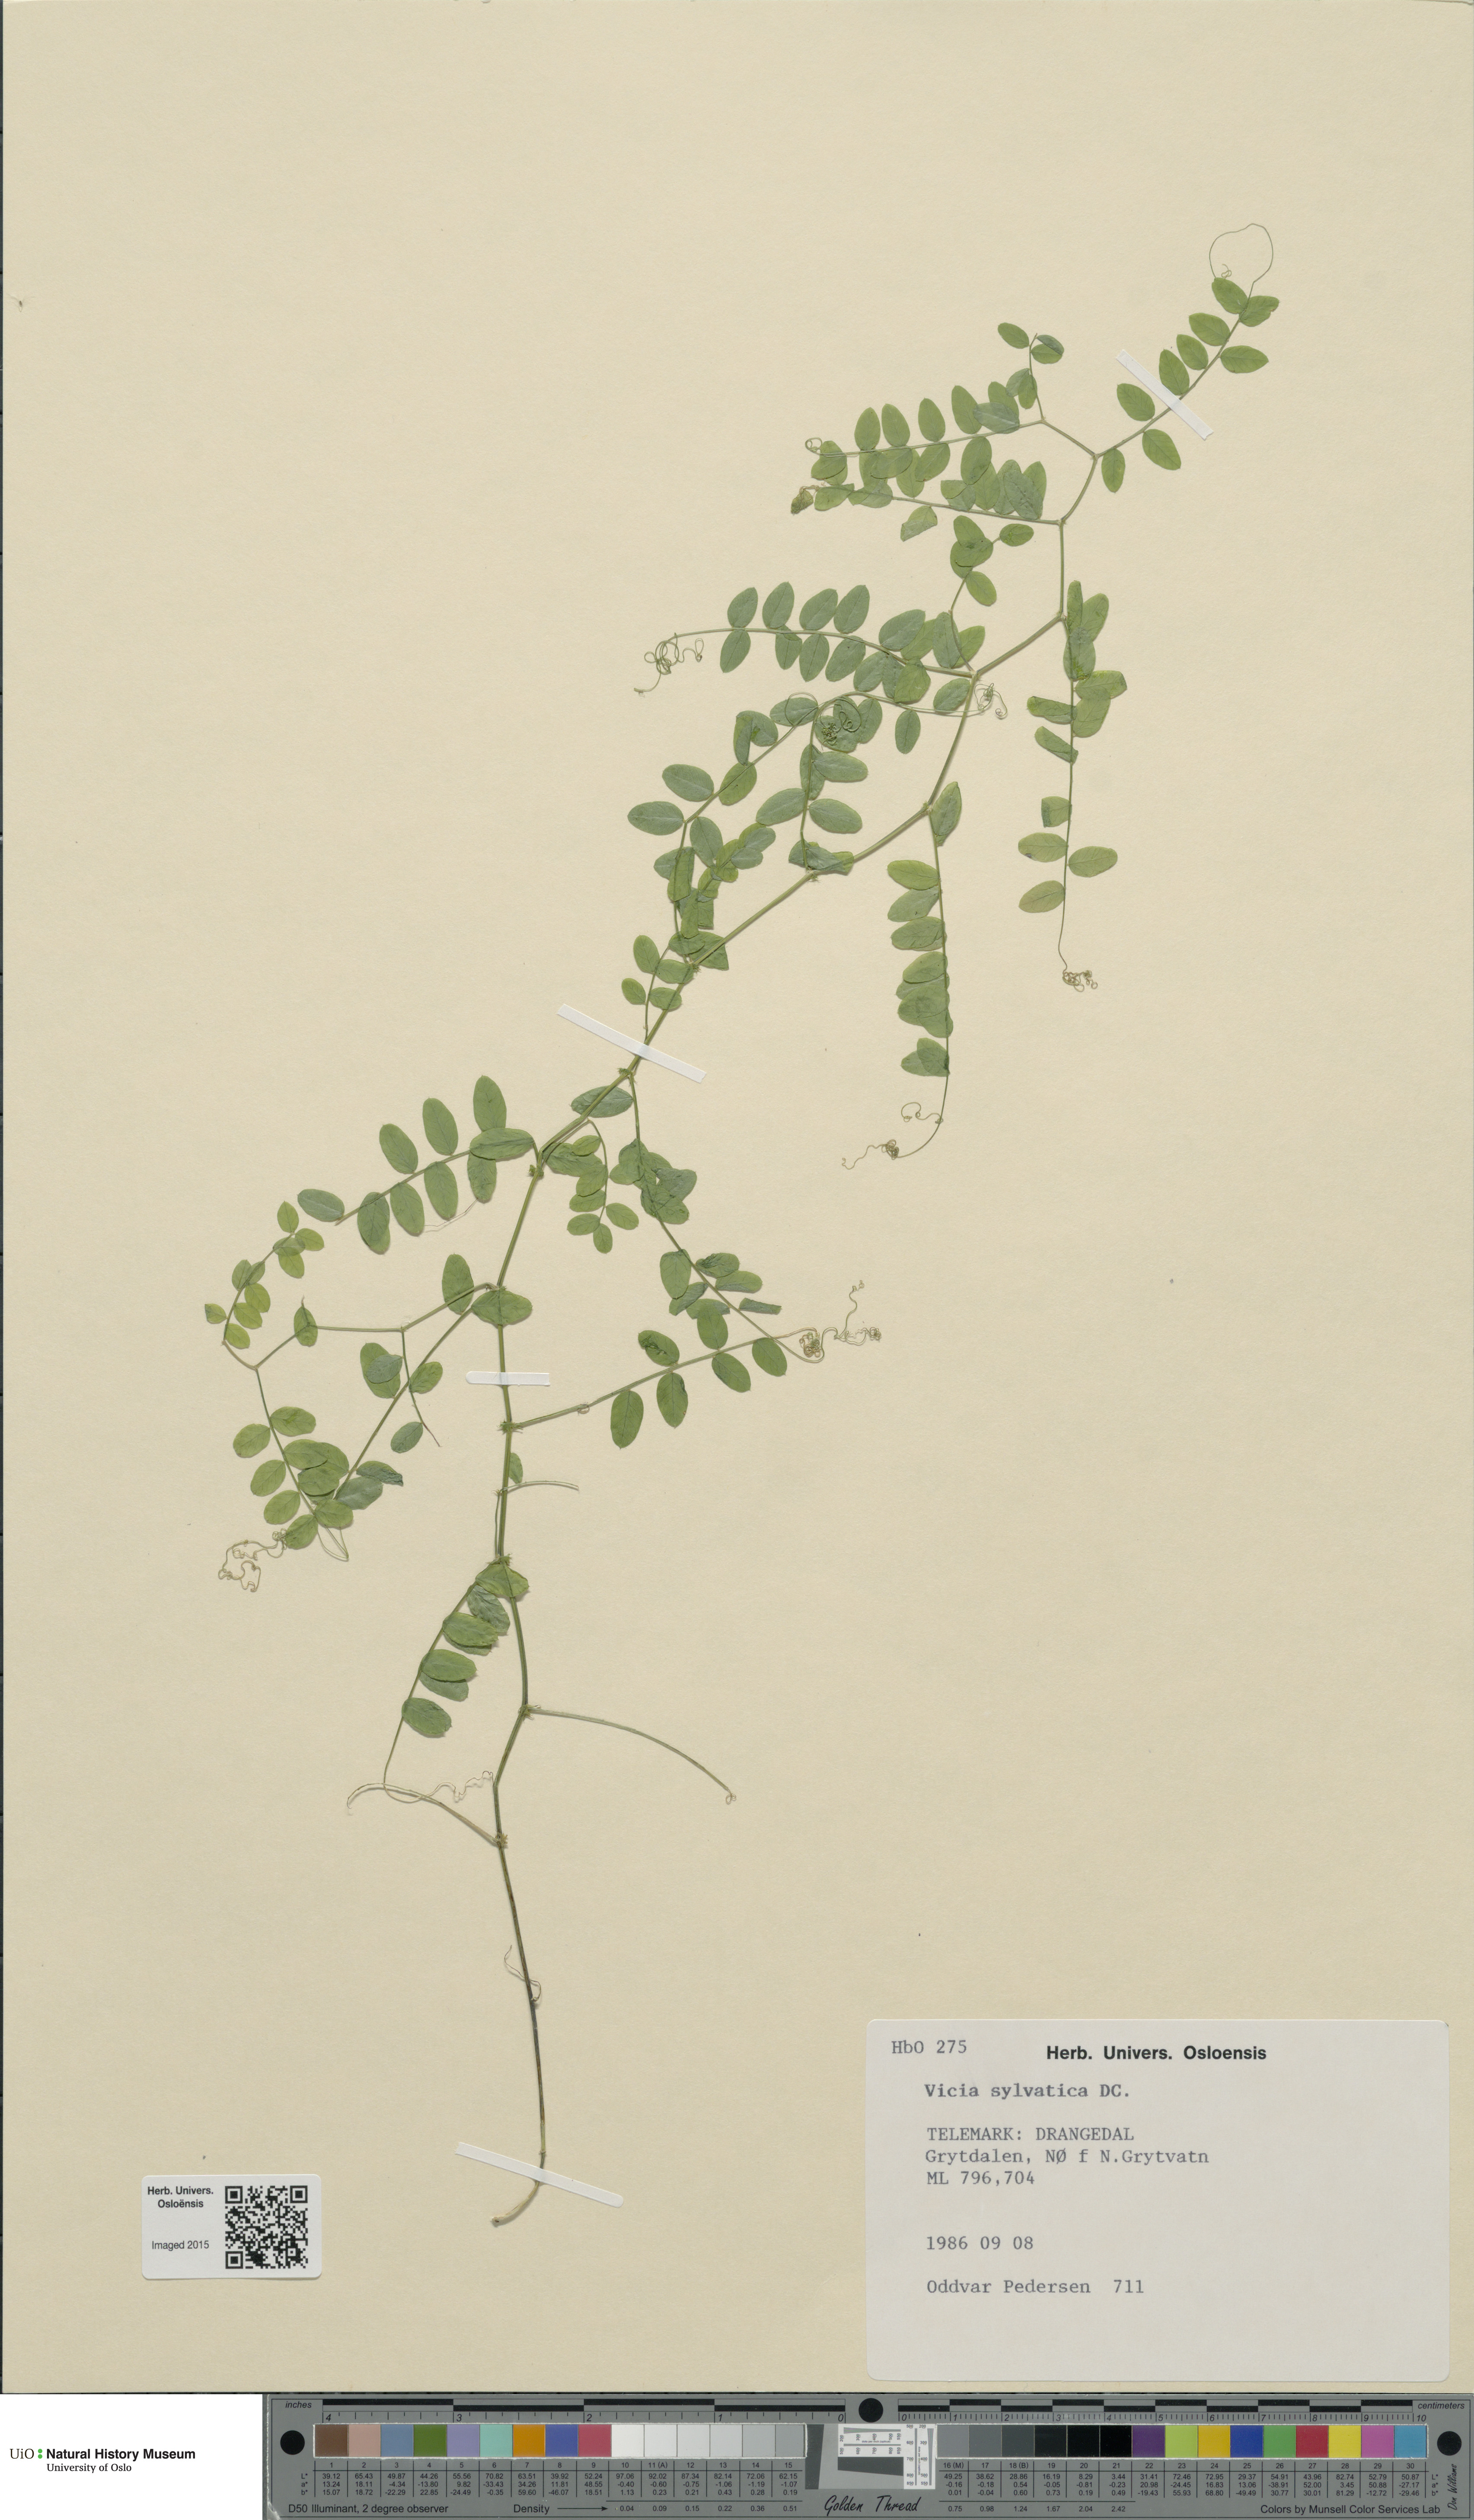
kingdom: Plantae
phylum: Tracheophyta
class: Magnoliopsida
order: Fabales
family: Fabaceae
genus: Vicia
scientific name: Vicia sylvatica
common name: Wood vetch
